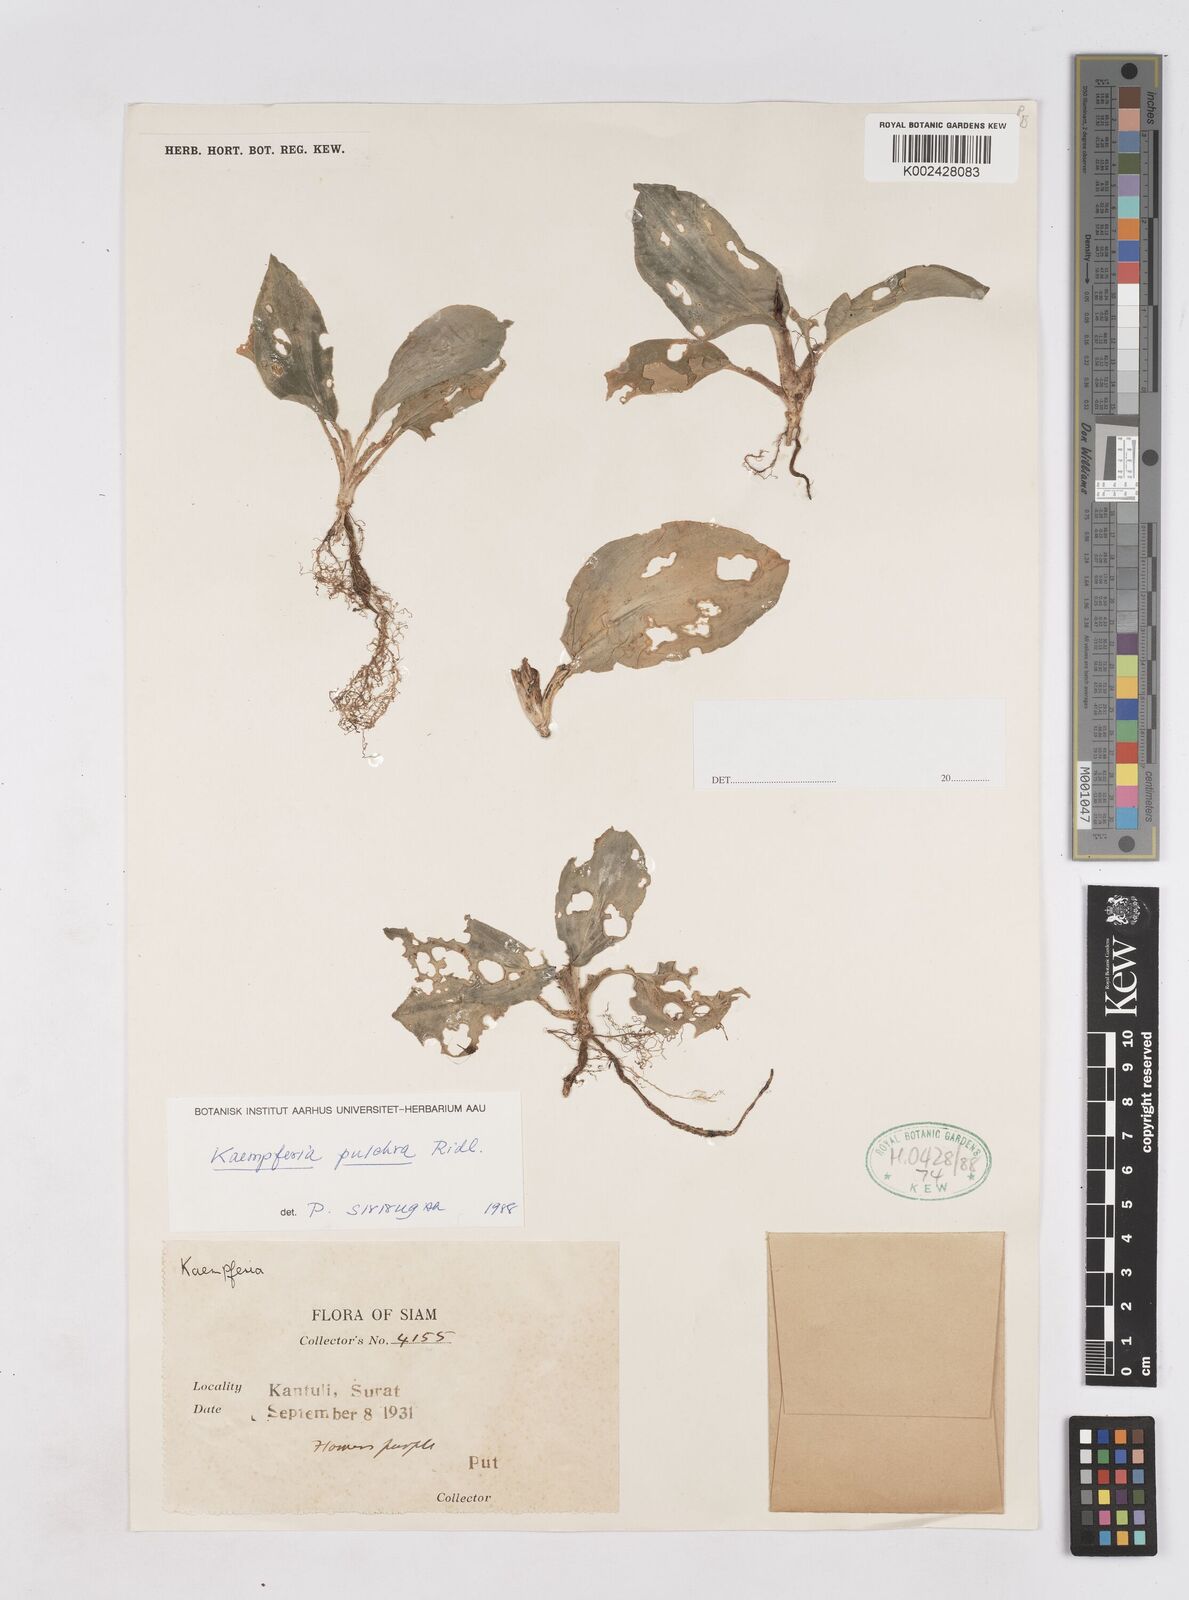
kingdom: Plantae
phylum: Tracheophyta
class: Liliopsida
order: Zingiberales
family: Zingiberaceae
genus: Kaempferia
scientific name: Kaempferia elegans
